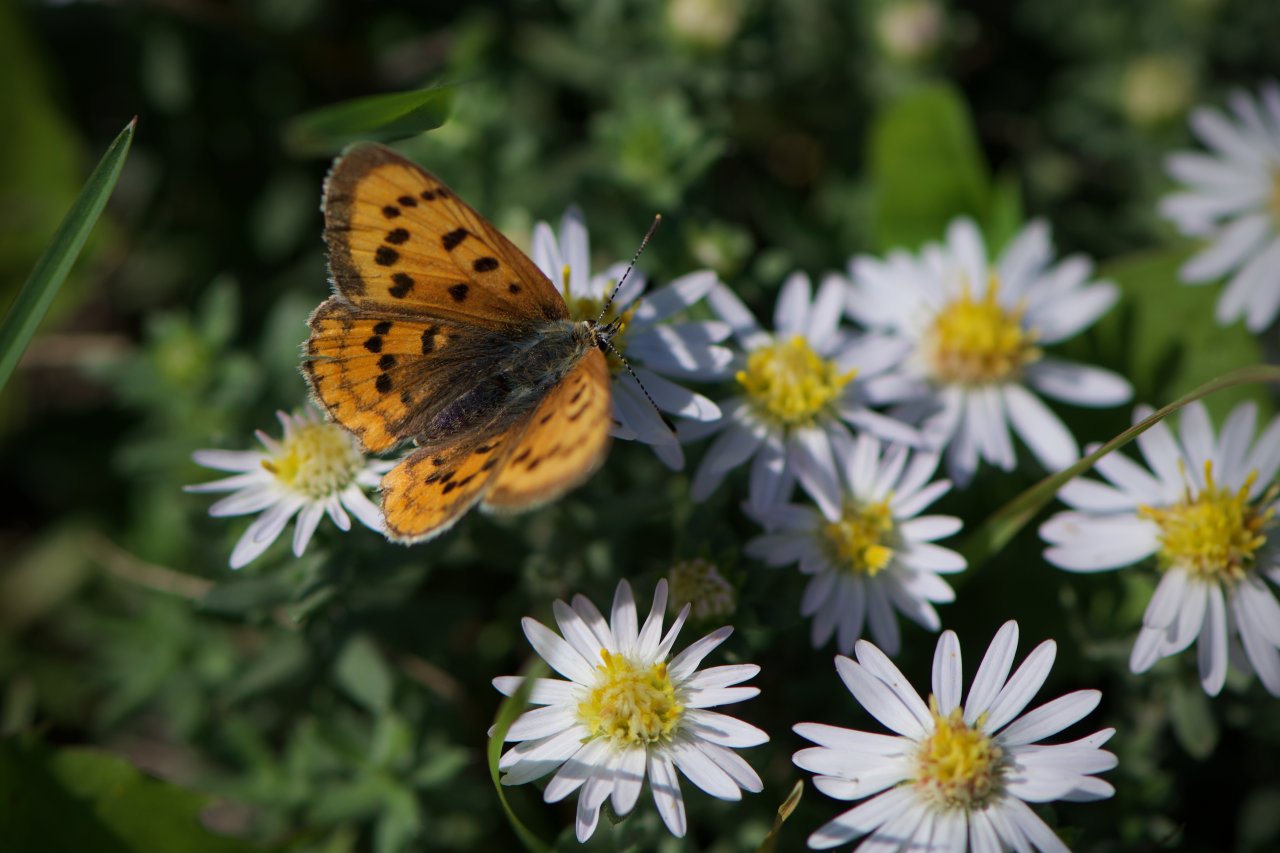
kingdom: Animalia
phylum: Arthropoda
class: Insecta
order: Lepidoptera
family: Sesiidae
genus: Sesia
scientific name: Sesia Lycaena helloides
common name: Purplish Copper
